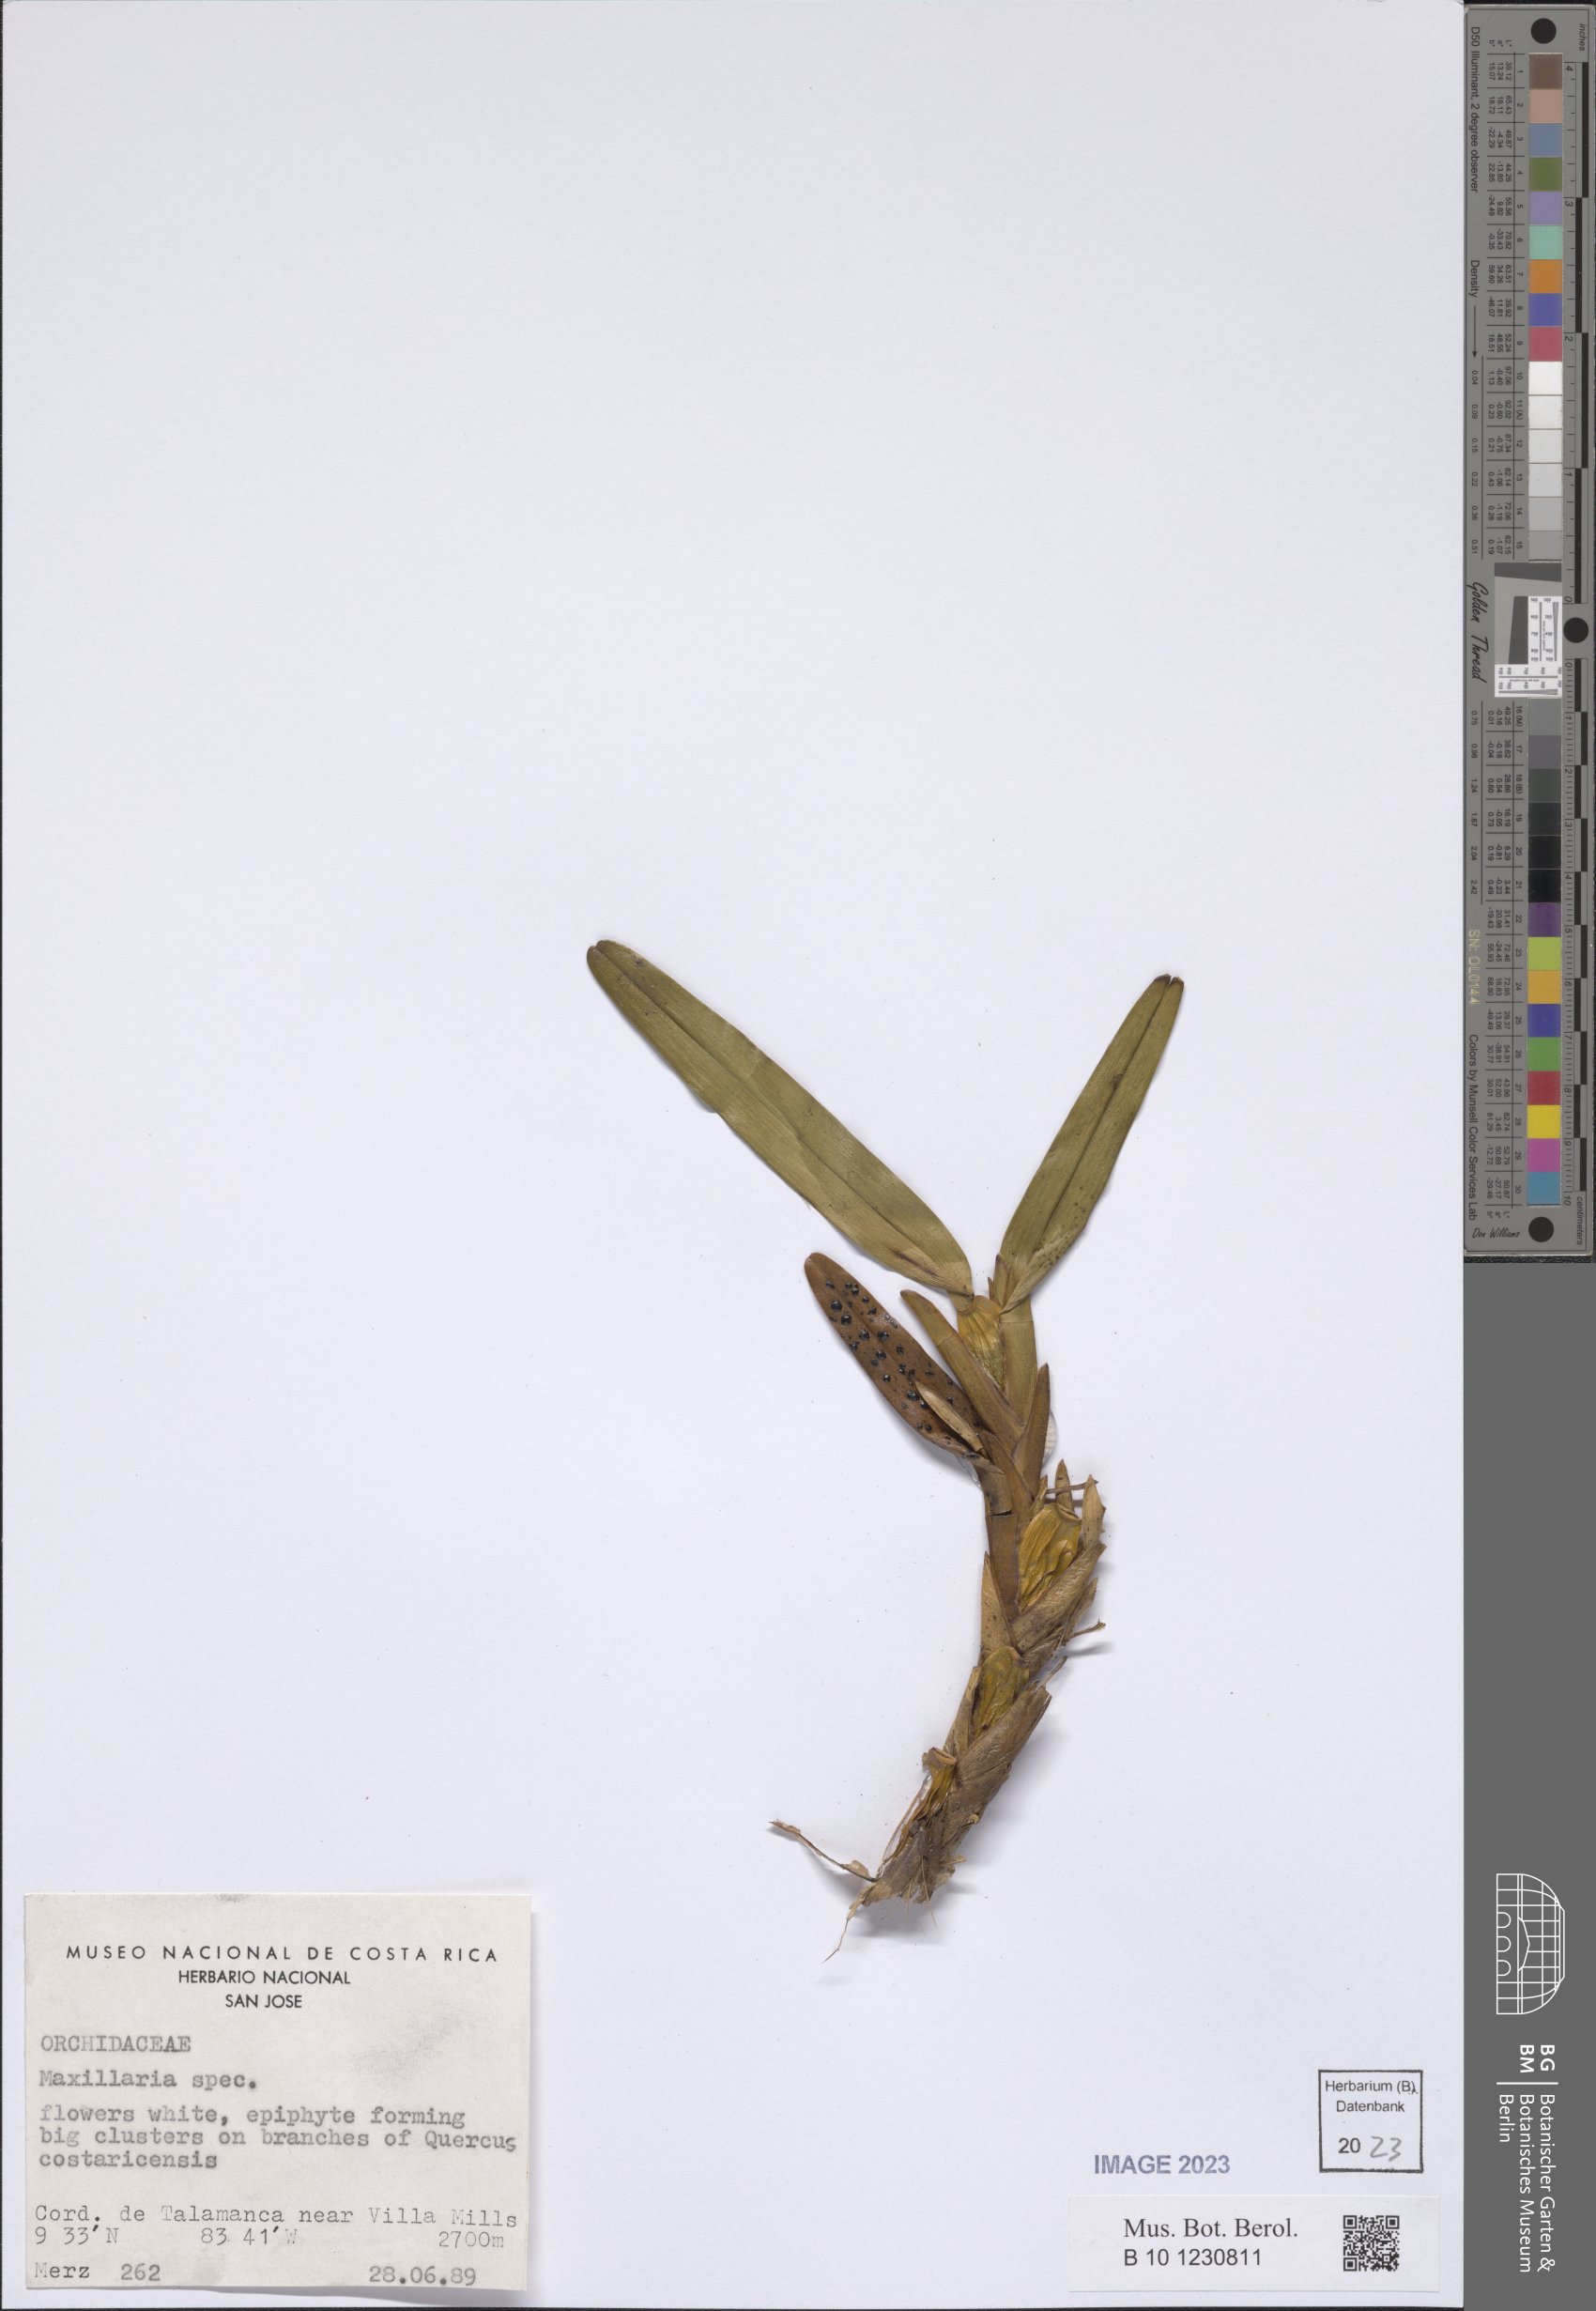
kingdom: Plantae
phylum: Tracheophyta
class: Liliopsida
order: Asparagales
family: Orchidaceae
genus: Maxillaria
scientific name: Maxillaria
